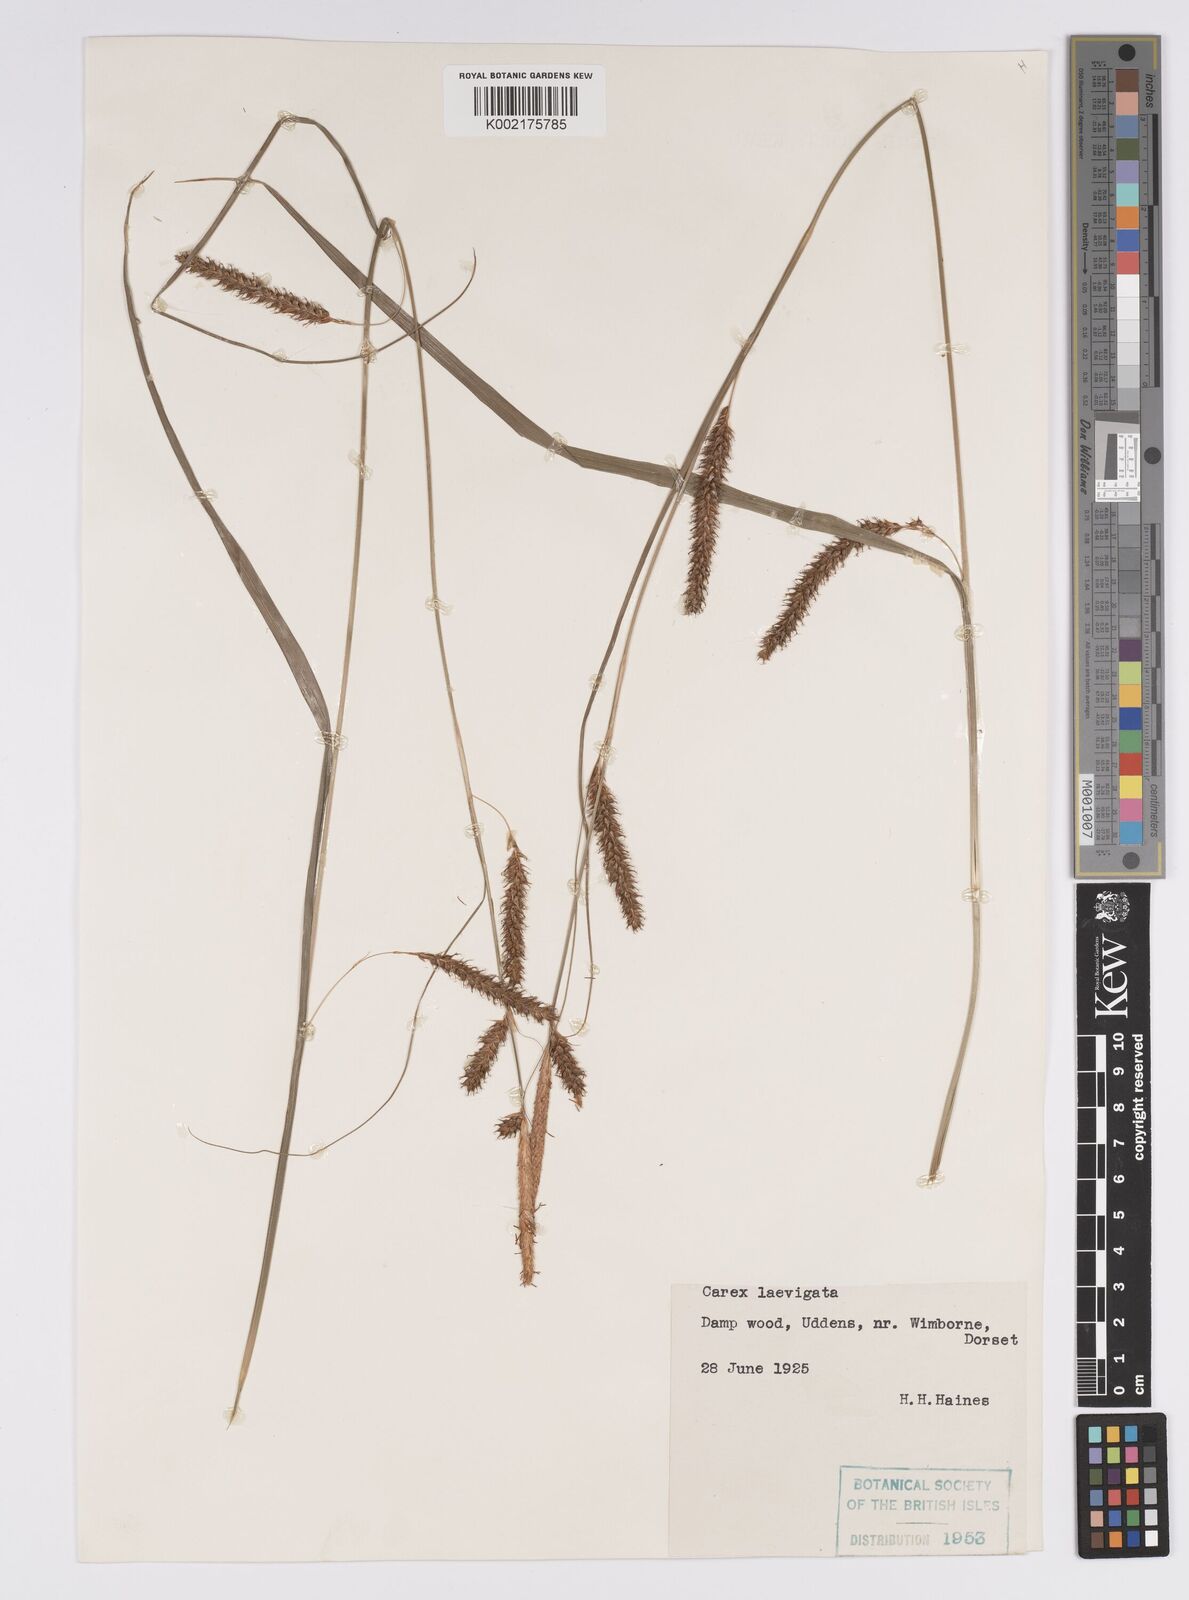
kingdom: Plantae
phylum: Tracheophyta
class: Liliopsida
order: Poales
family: Cyperaceae
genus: Carex
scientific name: Carex laevigata
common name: Smooth-stalked sedge
